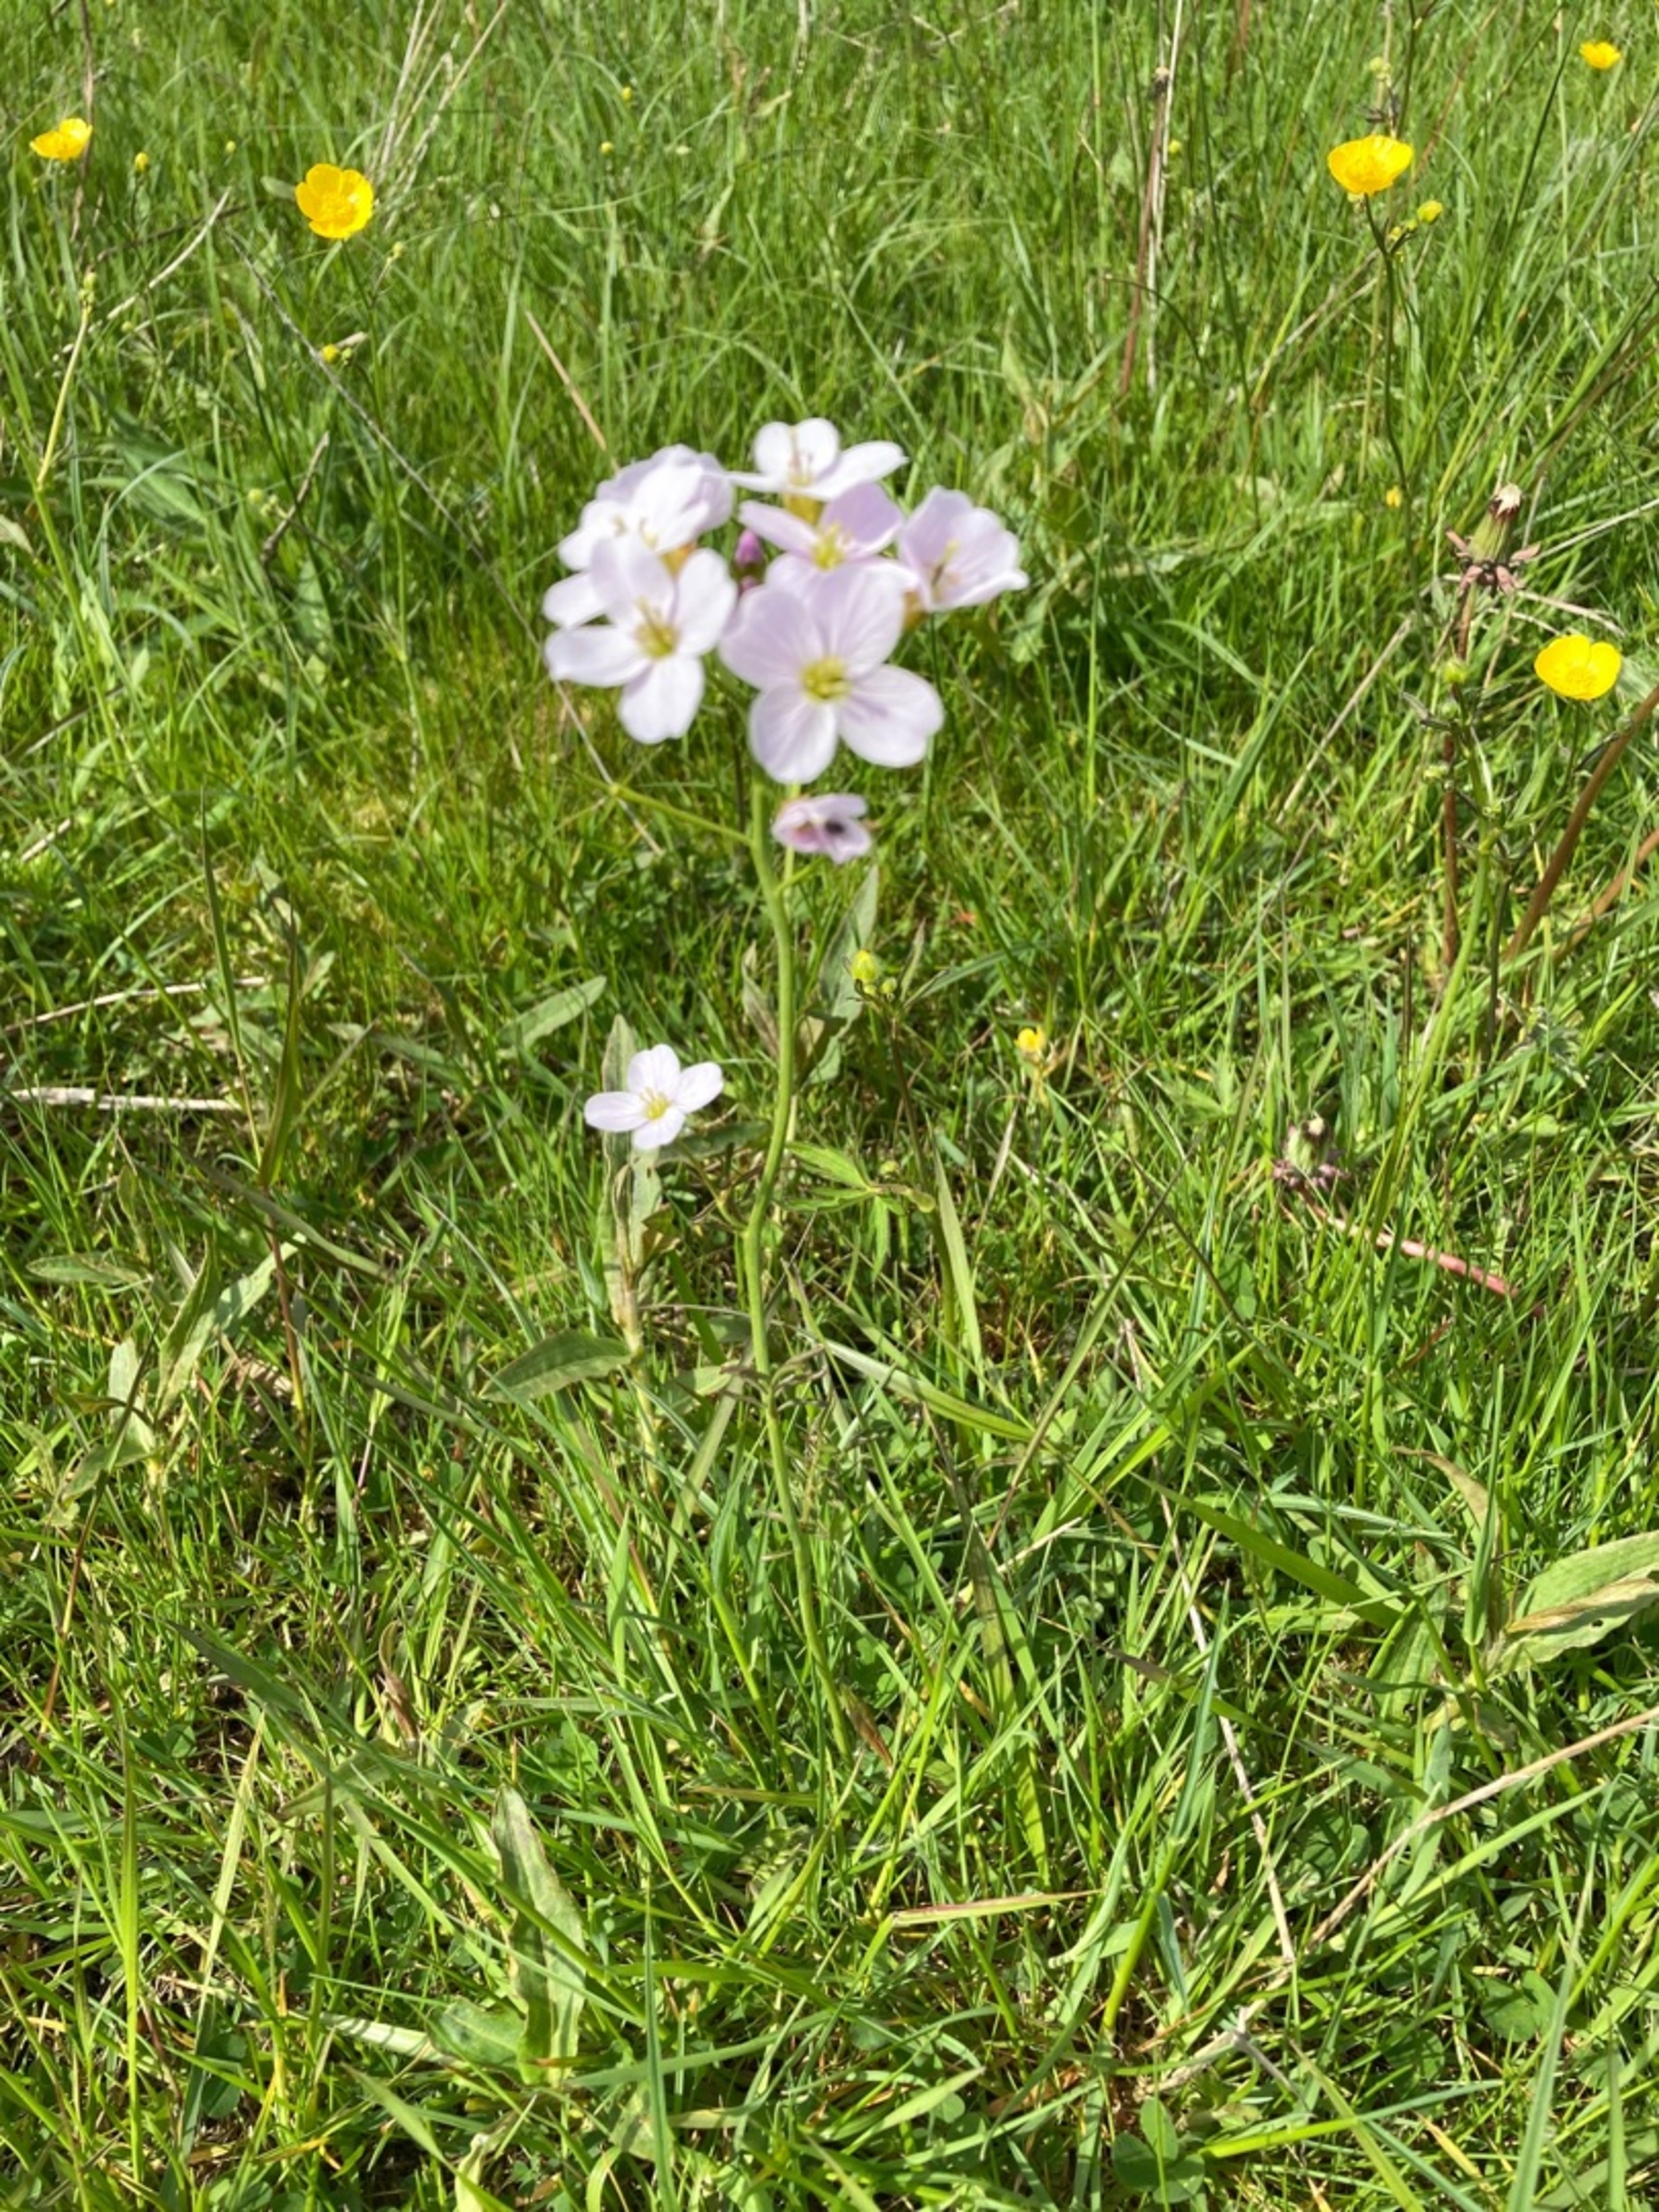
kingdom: Plantae
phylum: Tracheophyta
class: Magnoliopsida
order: Brassicales
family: Brassicaceae
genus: Cardamine
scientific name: Cardamine pratensis
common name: Engkarse
